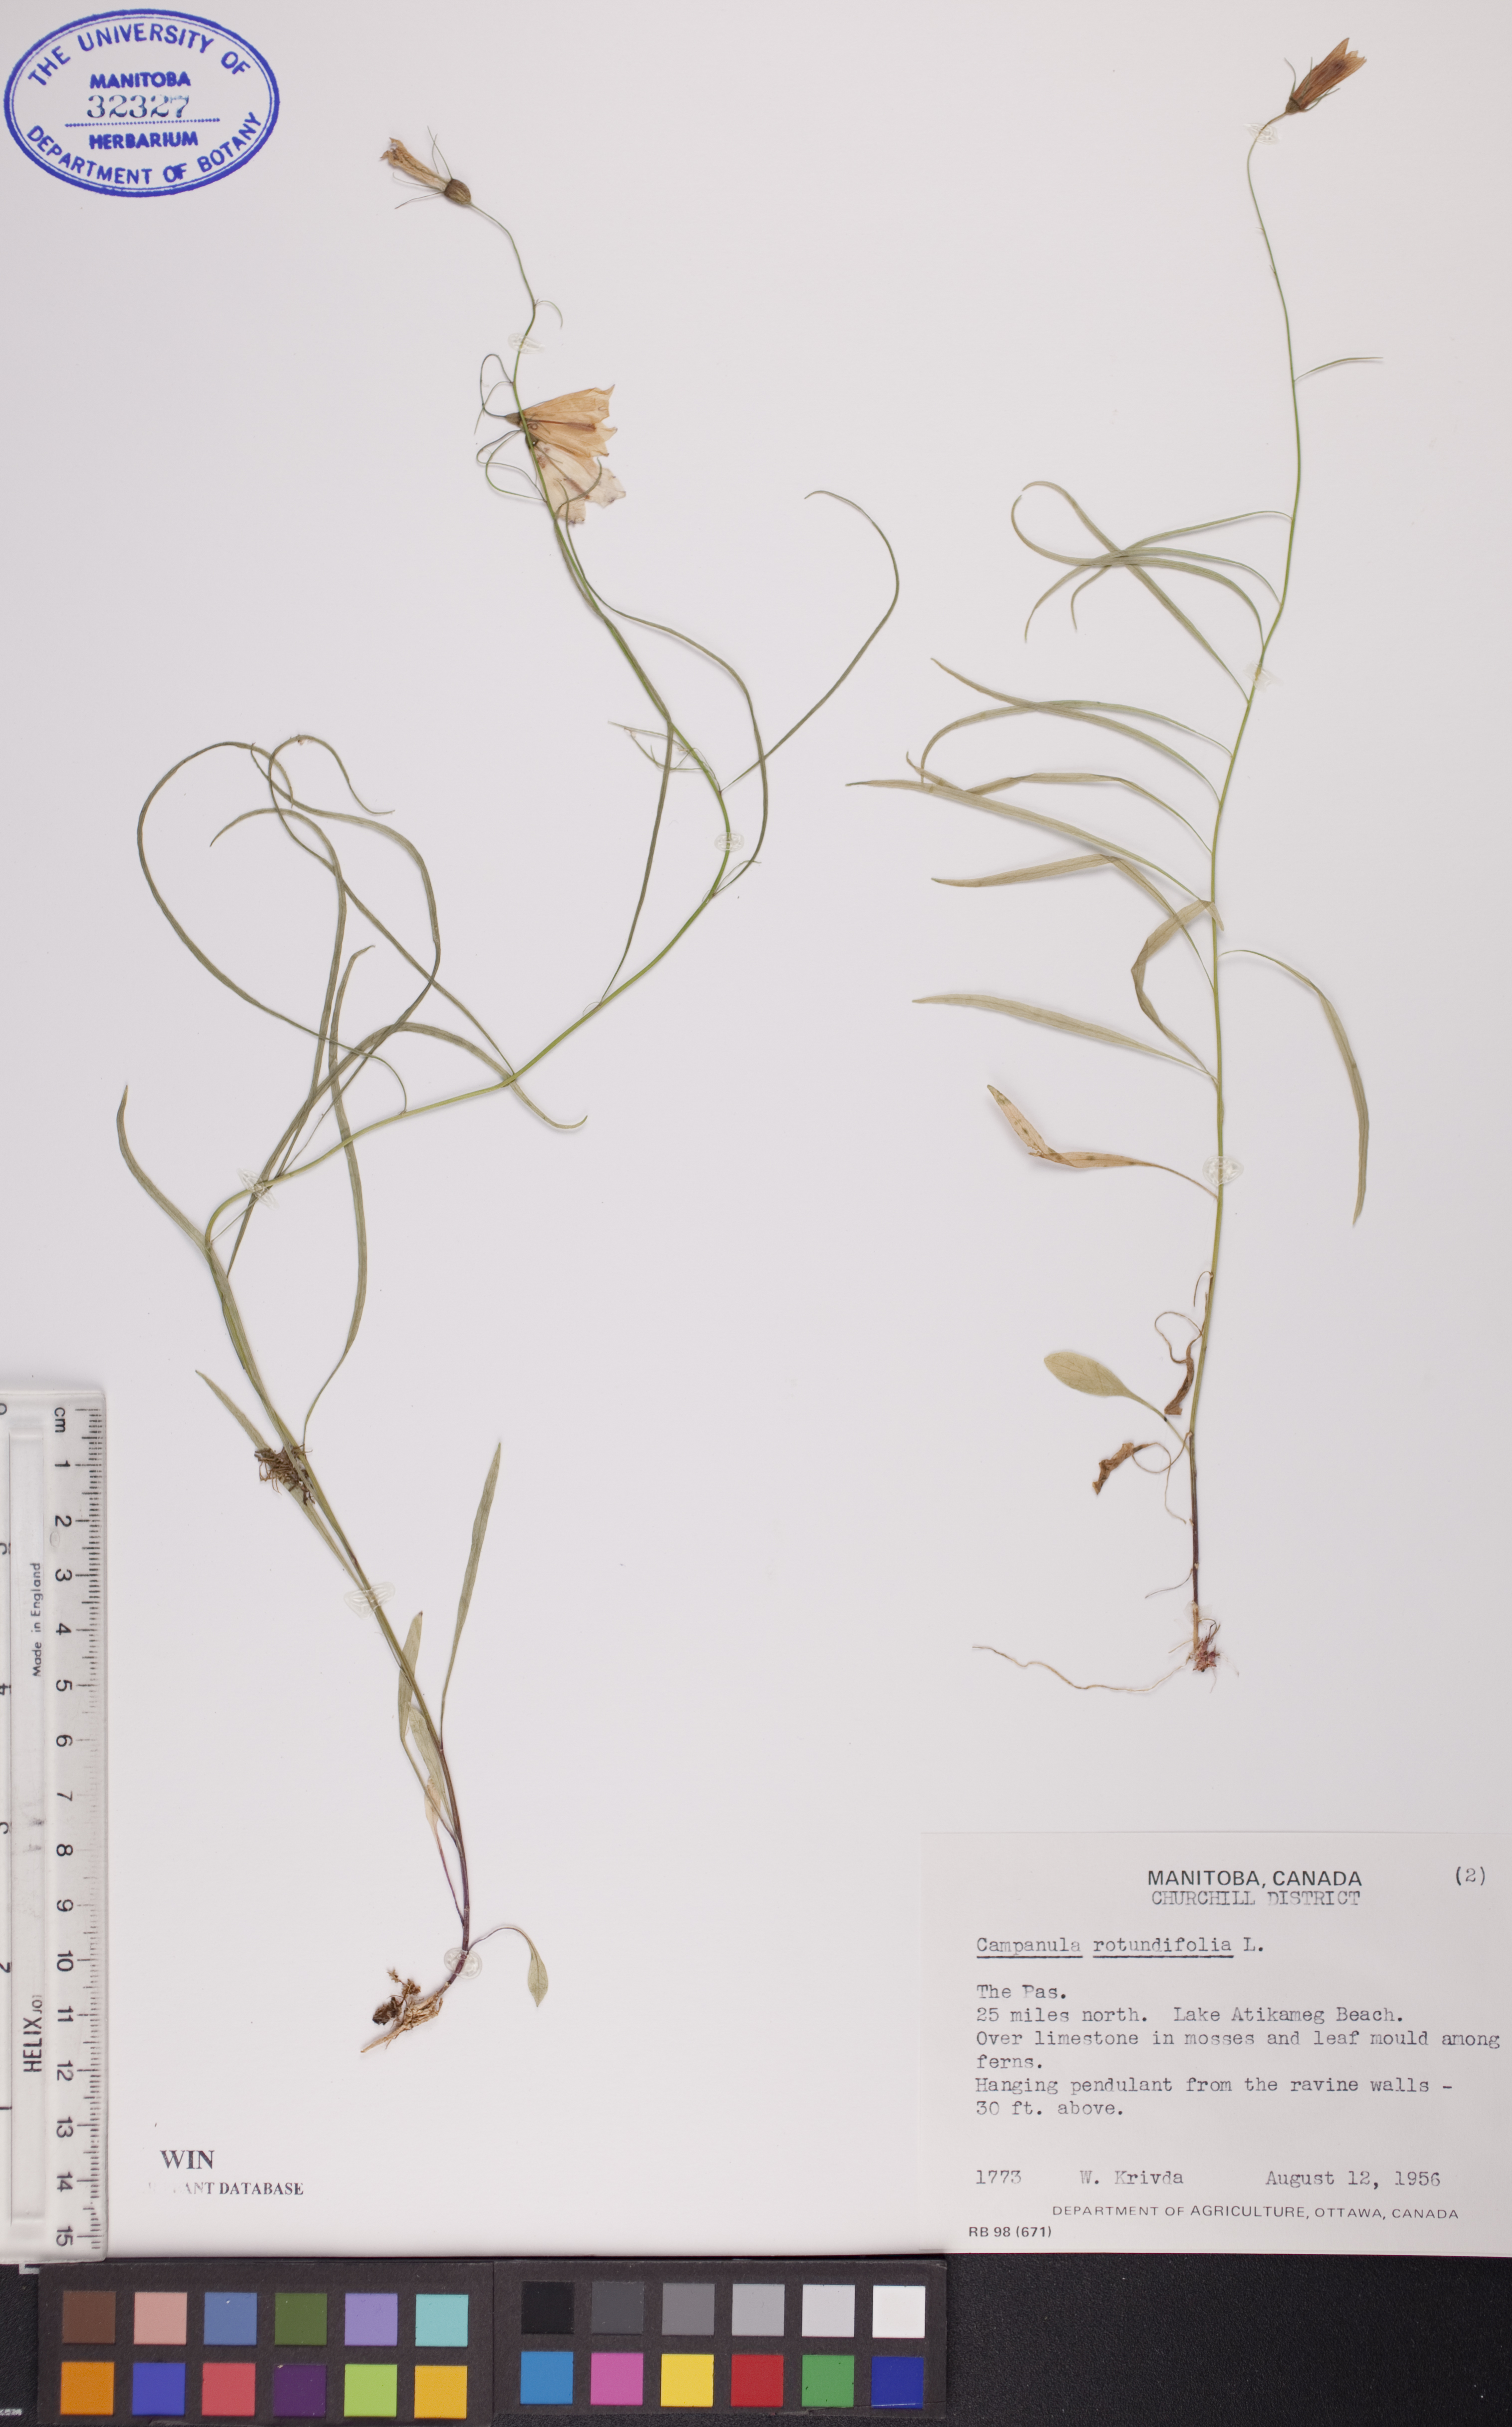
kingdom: Plantae
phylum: Tracheophyta
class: Magnoliopsida
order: Asterales
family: Campanulaceae
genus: Campanula
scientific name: Campanula rotundifolia
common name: Harebell
